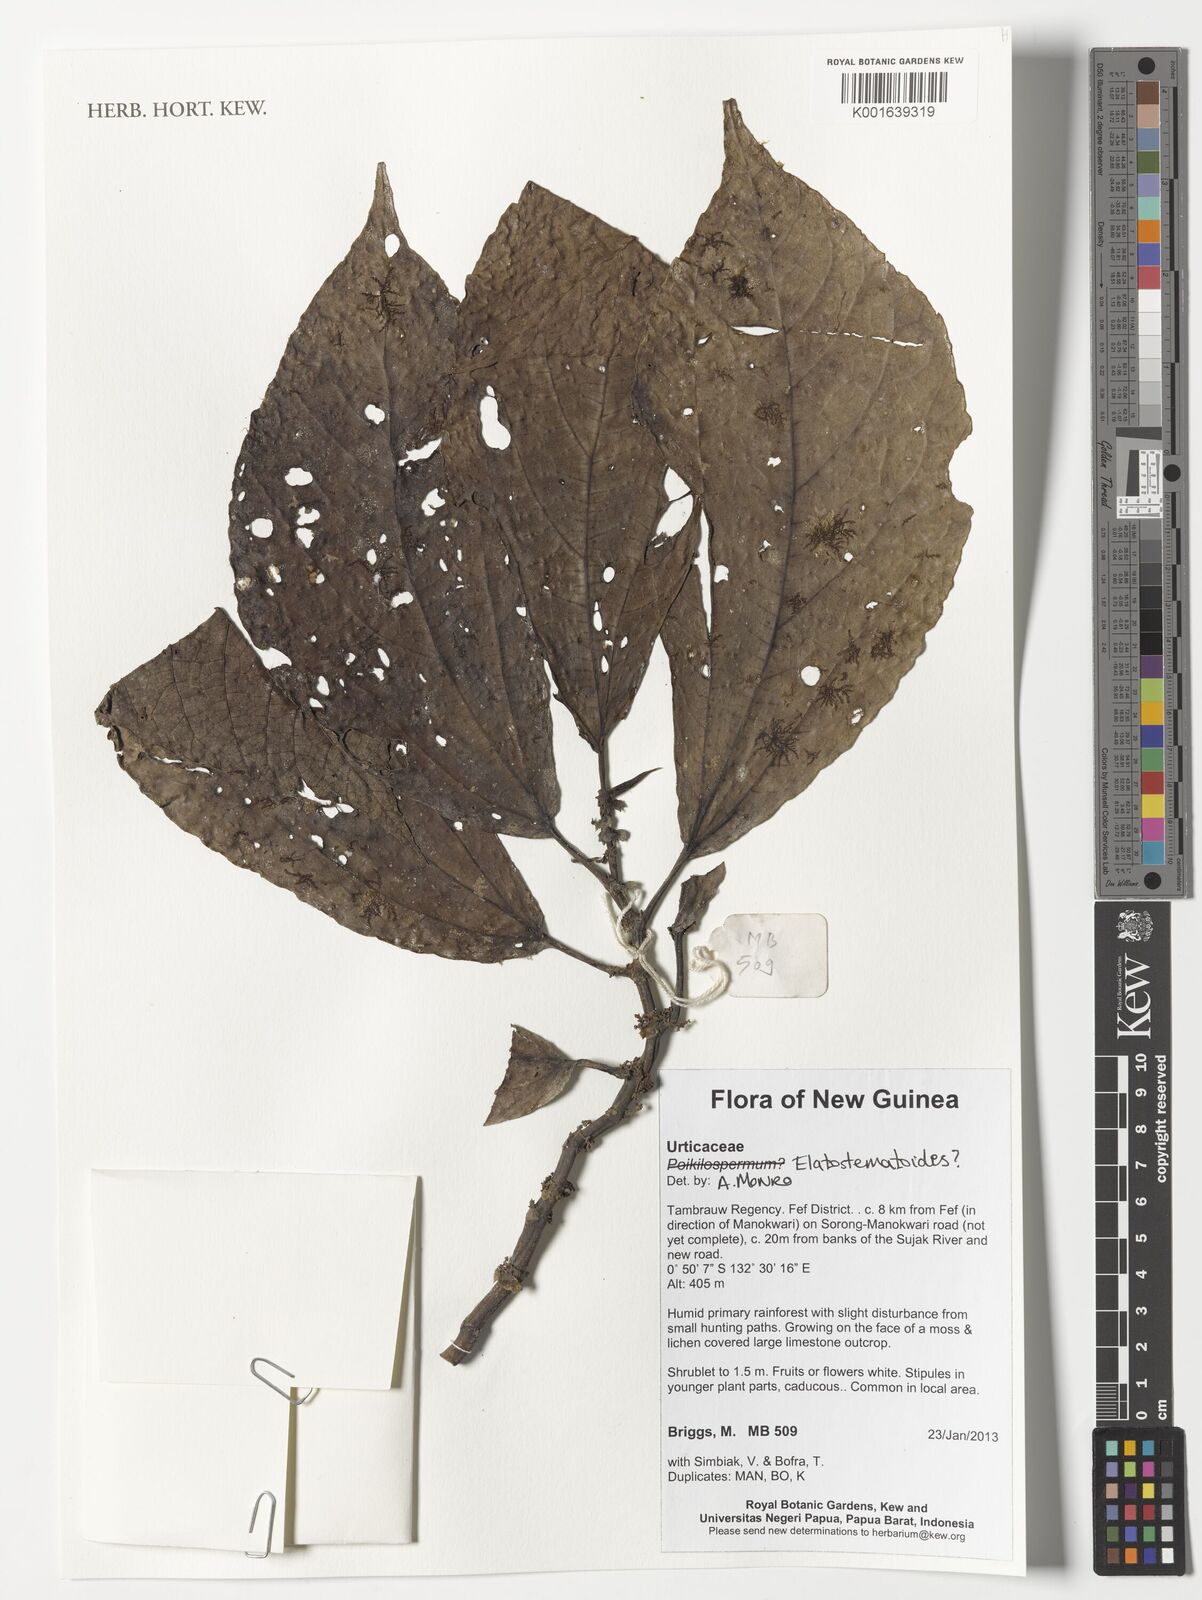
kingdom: Plantae
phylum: Tracheophyta
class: Magnoliopsida
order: Rosales
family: Urticaceae
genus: Elatostematoides
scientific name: Elatostematoides
